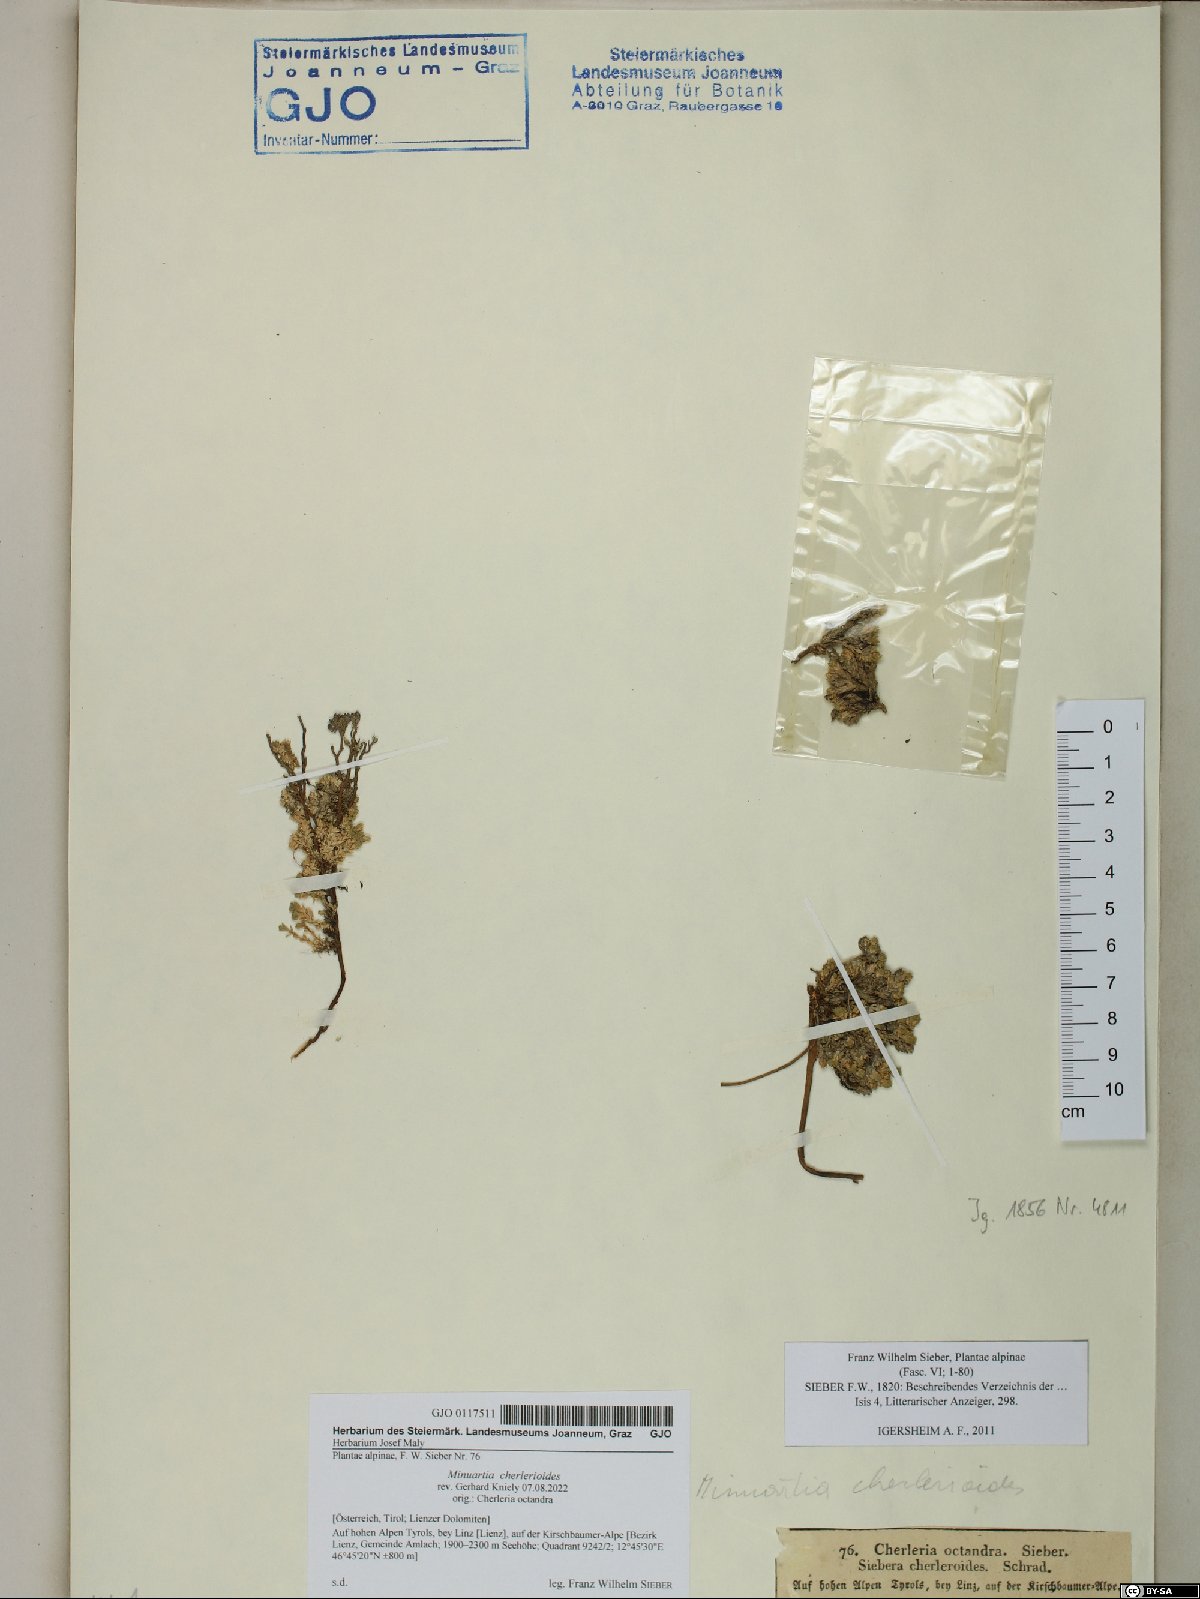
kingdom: Plantae
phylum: Tracheophyta
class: Magnoliopsida
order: Caryophyllales
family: Caryophyllaceae
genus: Facchinia
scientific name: Facchinia cherlerioides
